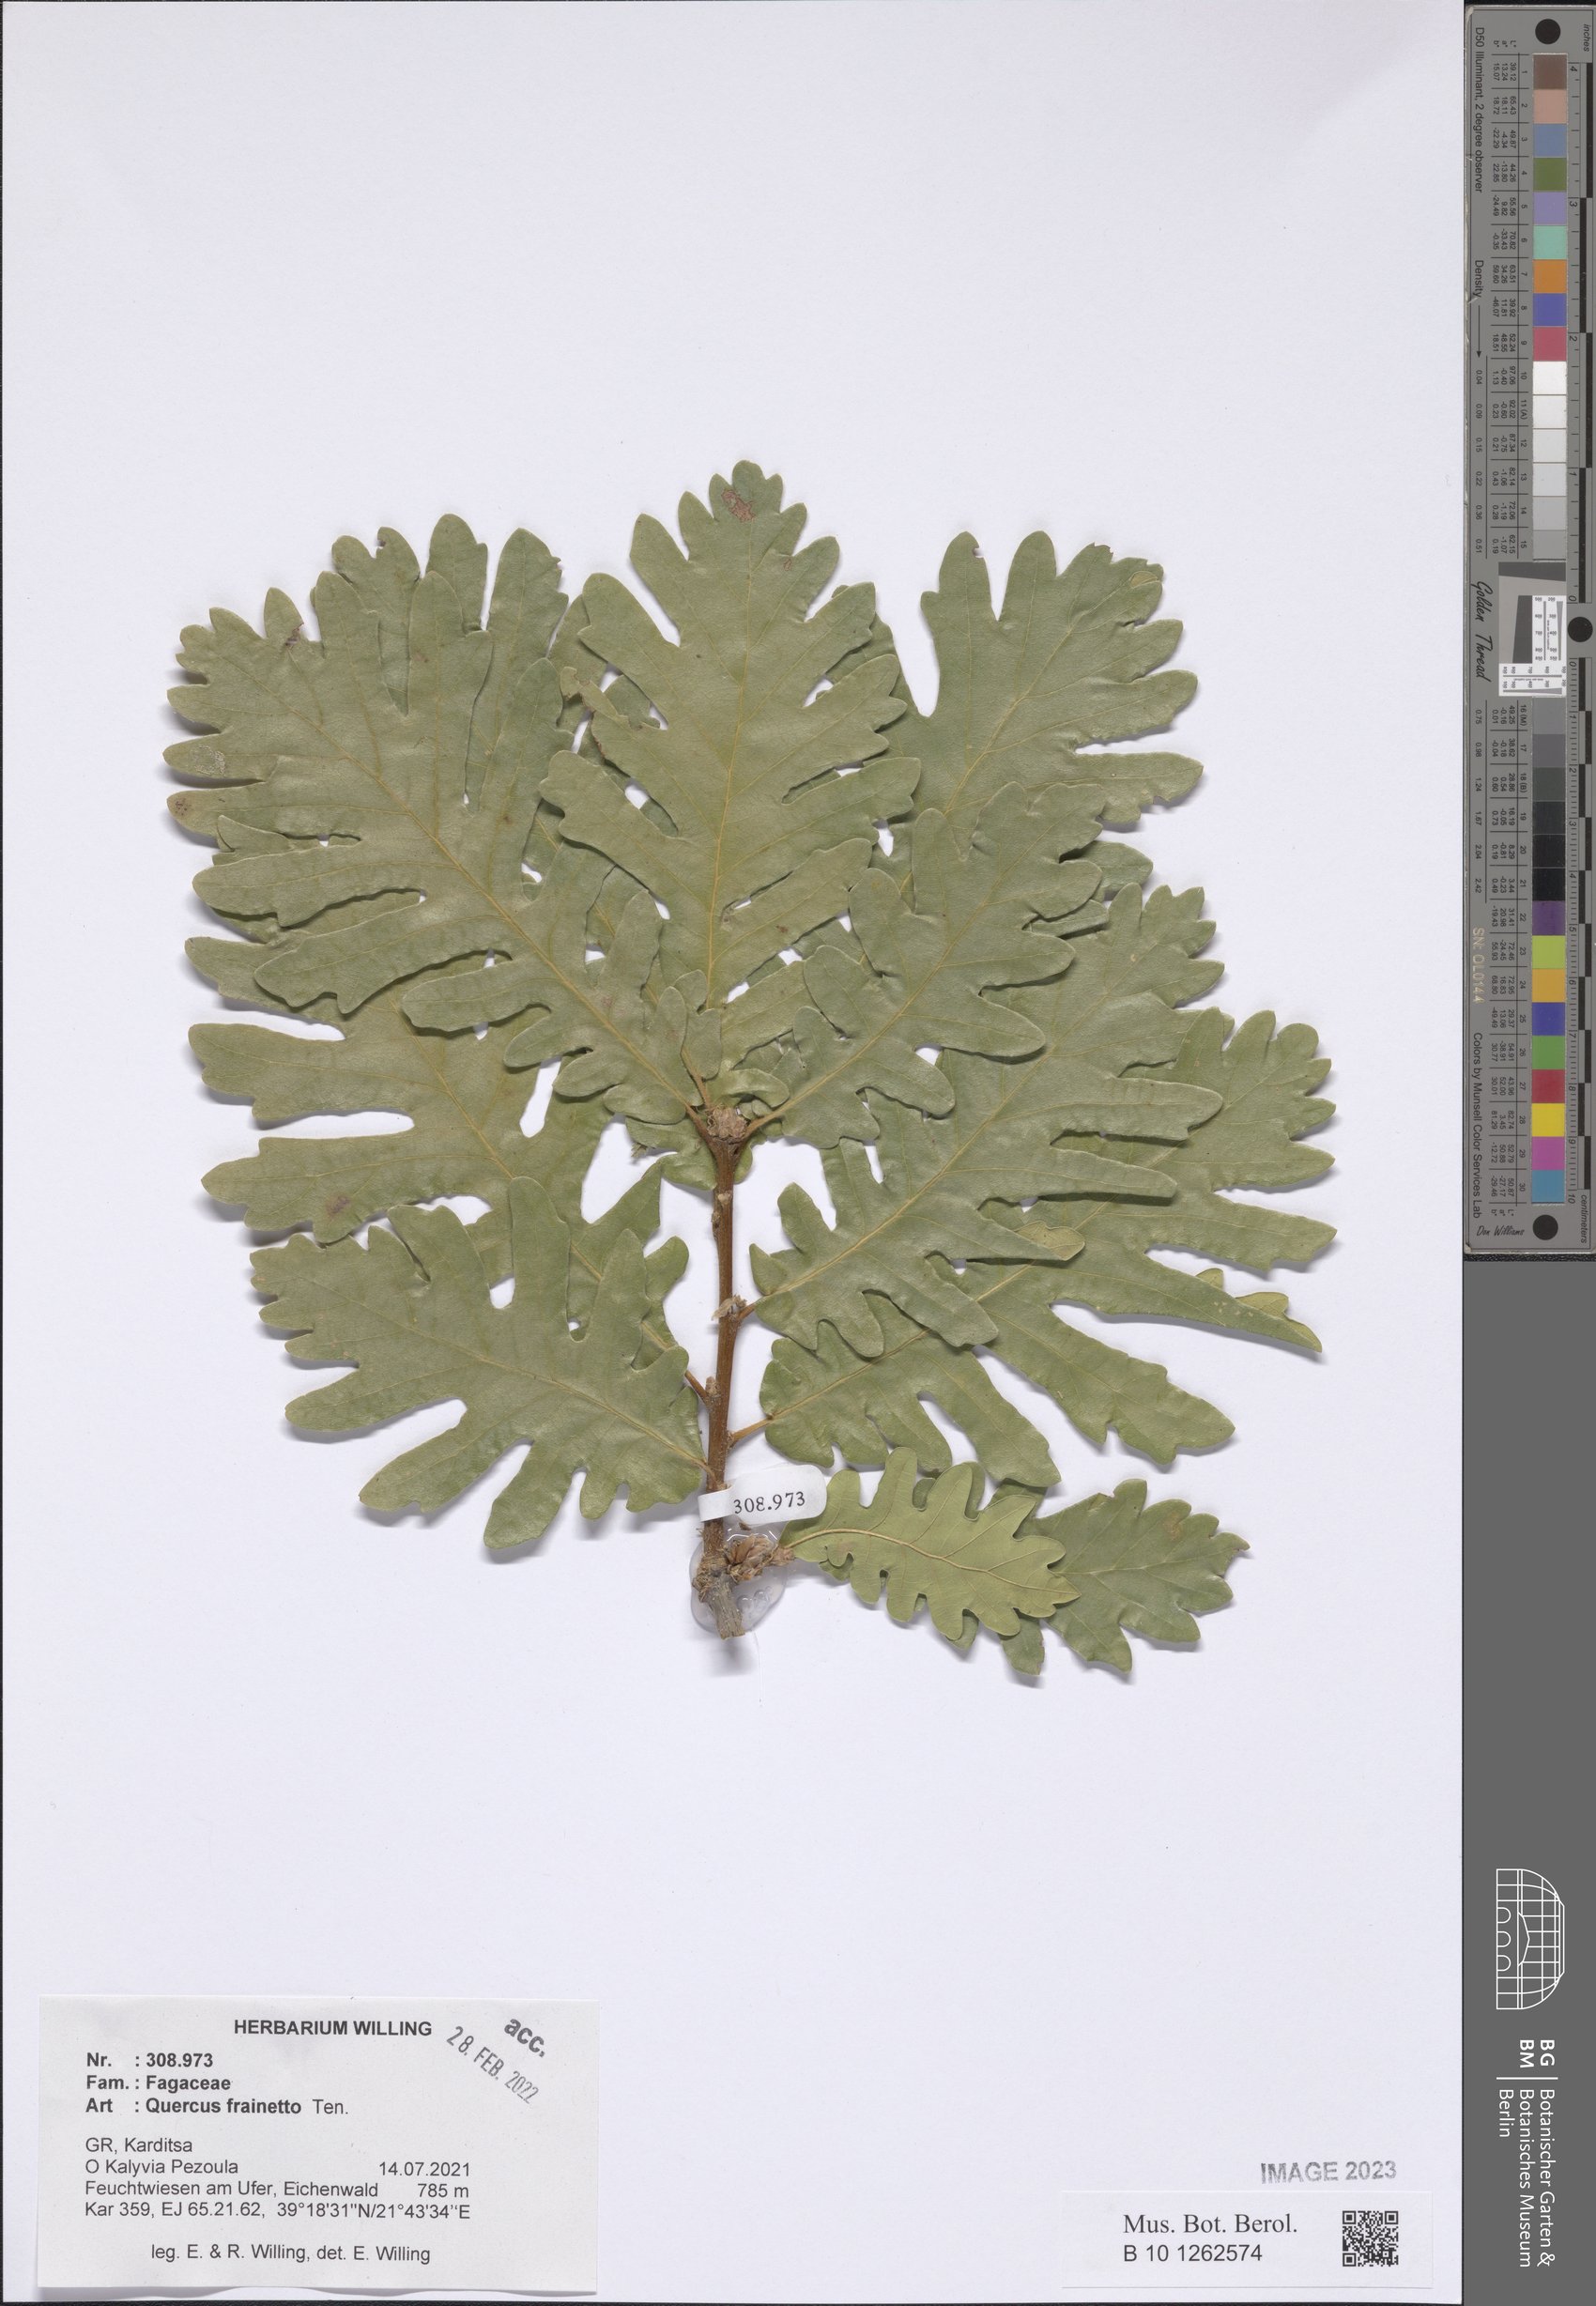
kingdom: Plantae
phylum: Tracheophyta
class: Magnoliopsida
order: Fagales
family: Fagaceae
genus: Quercus
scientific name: Quercus conferta
